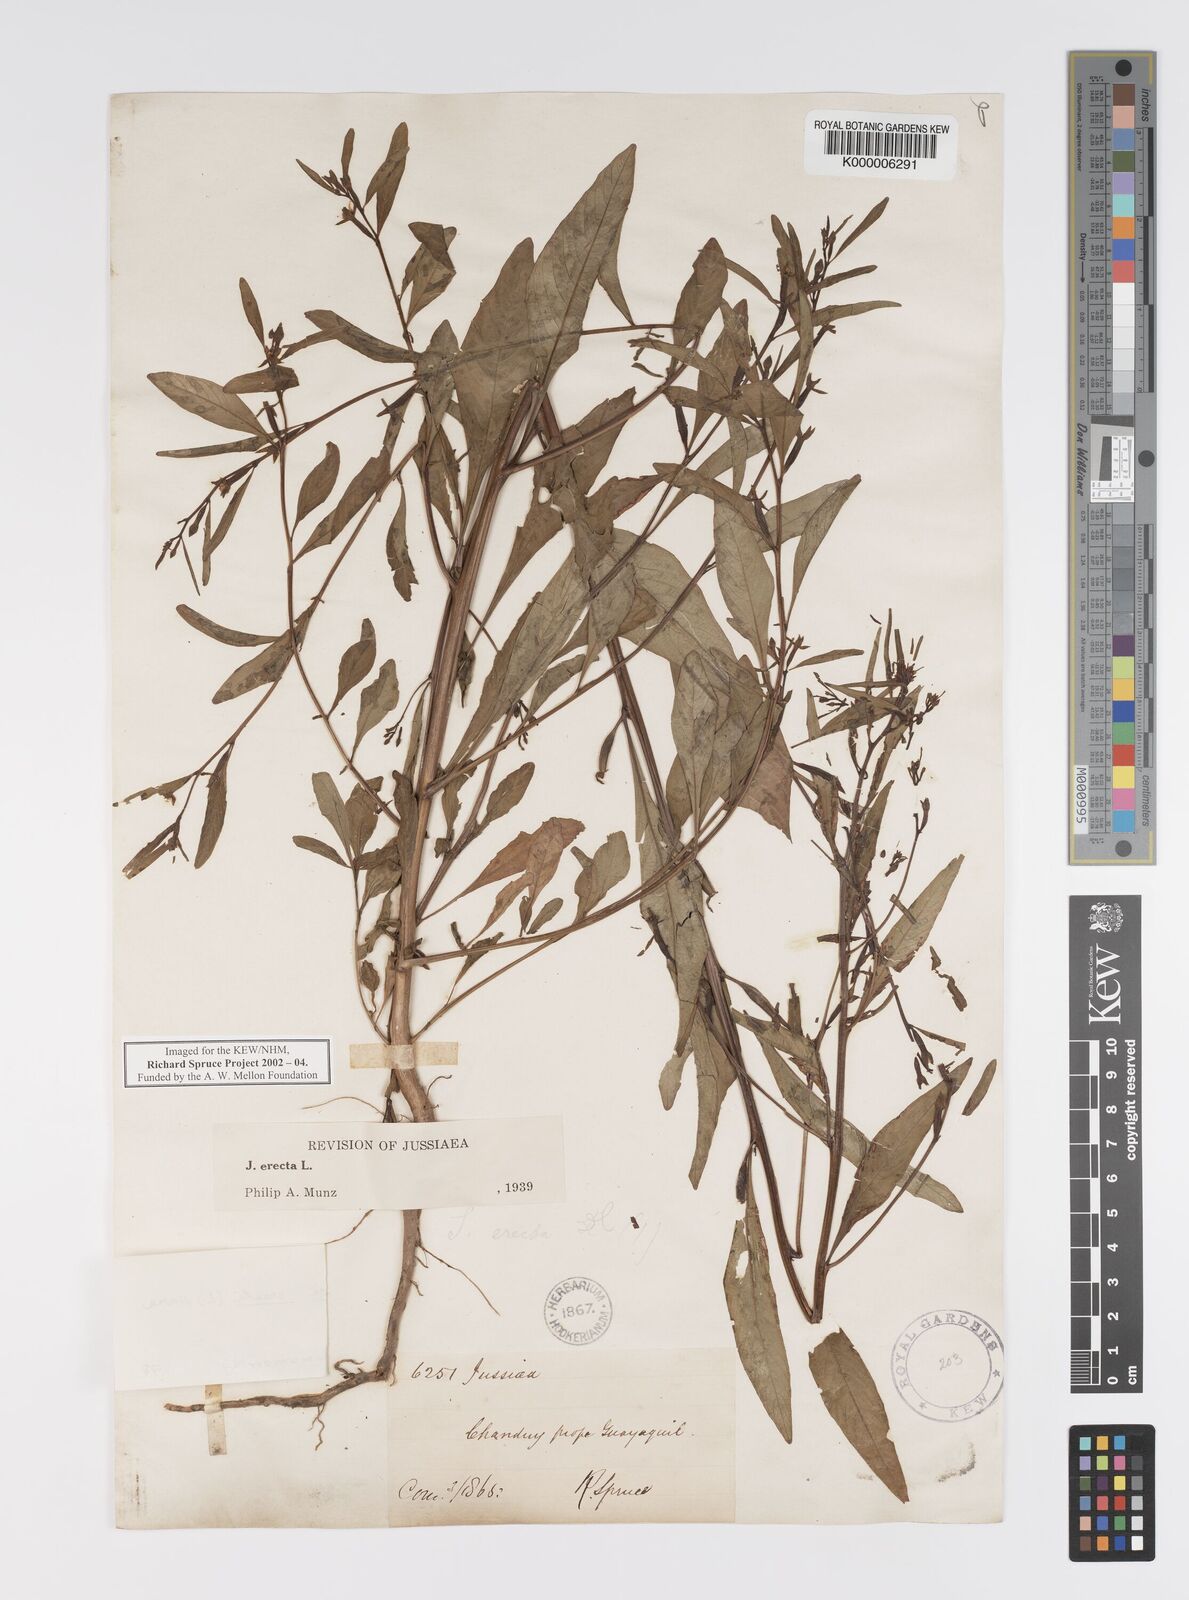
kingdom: Plantae
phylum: Tracheophyta
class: Magnoliopsida
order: Myrtales
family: Onagraceae
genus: Ludwigia
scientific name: Ludwigia erecta
